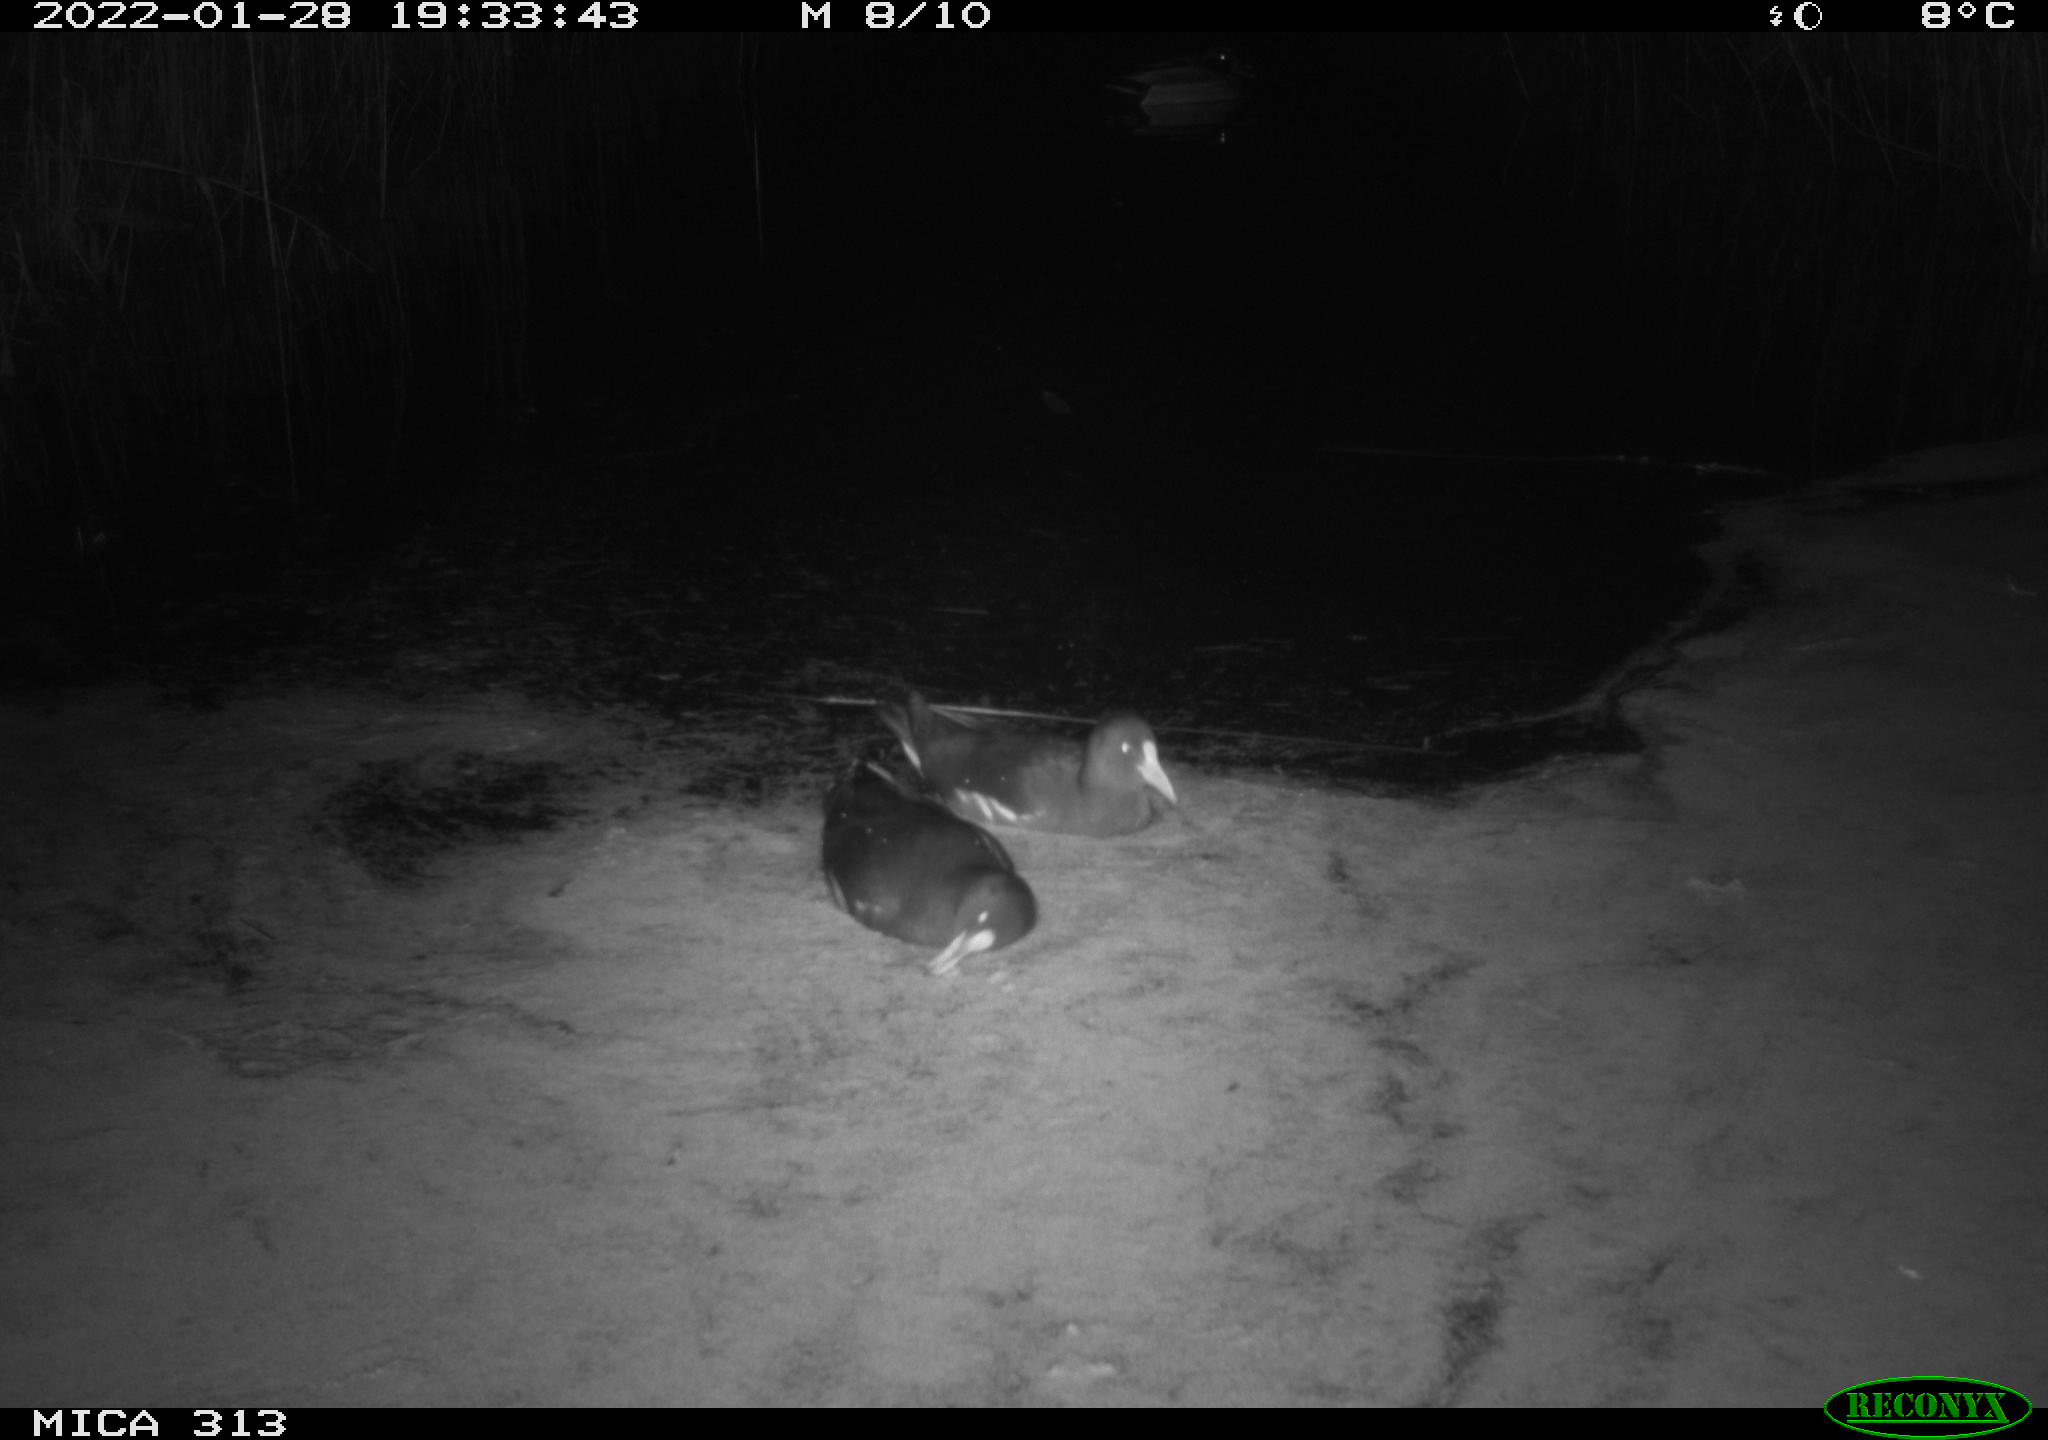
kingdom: Animalia
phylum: Chordata
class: Aves
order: Gruiformes
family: Rallidae
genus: Fulica
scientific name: Fulica atra
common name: Eurasian coot
